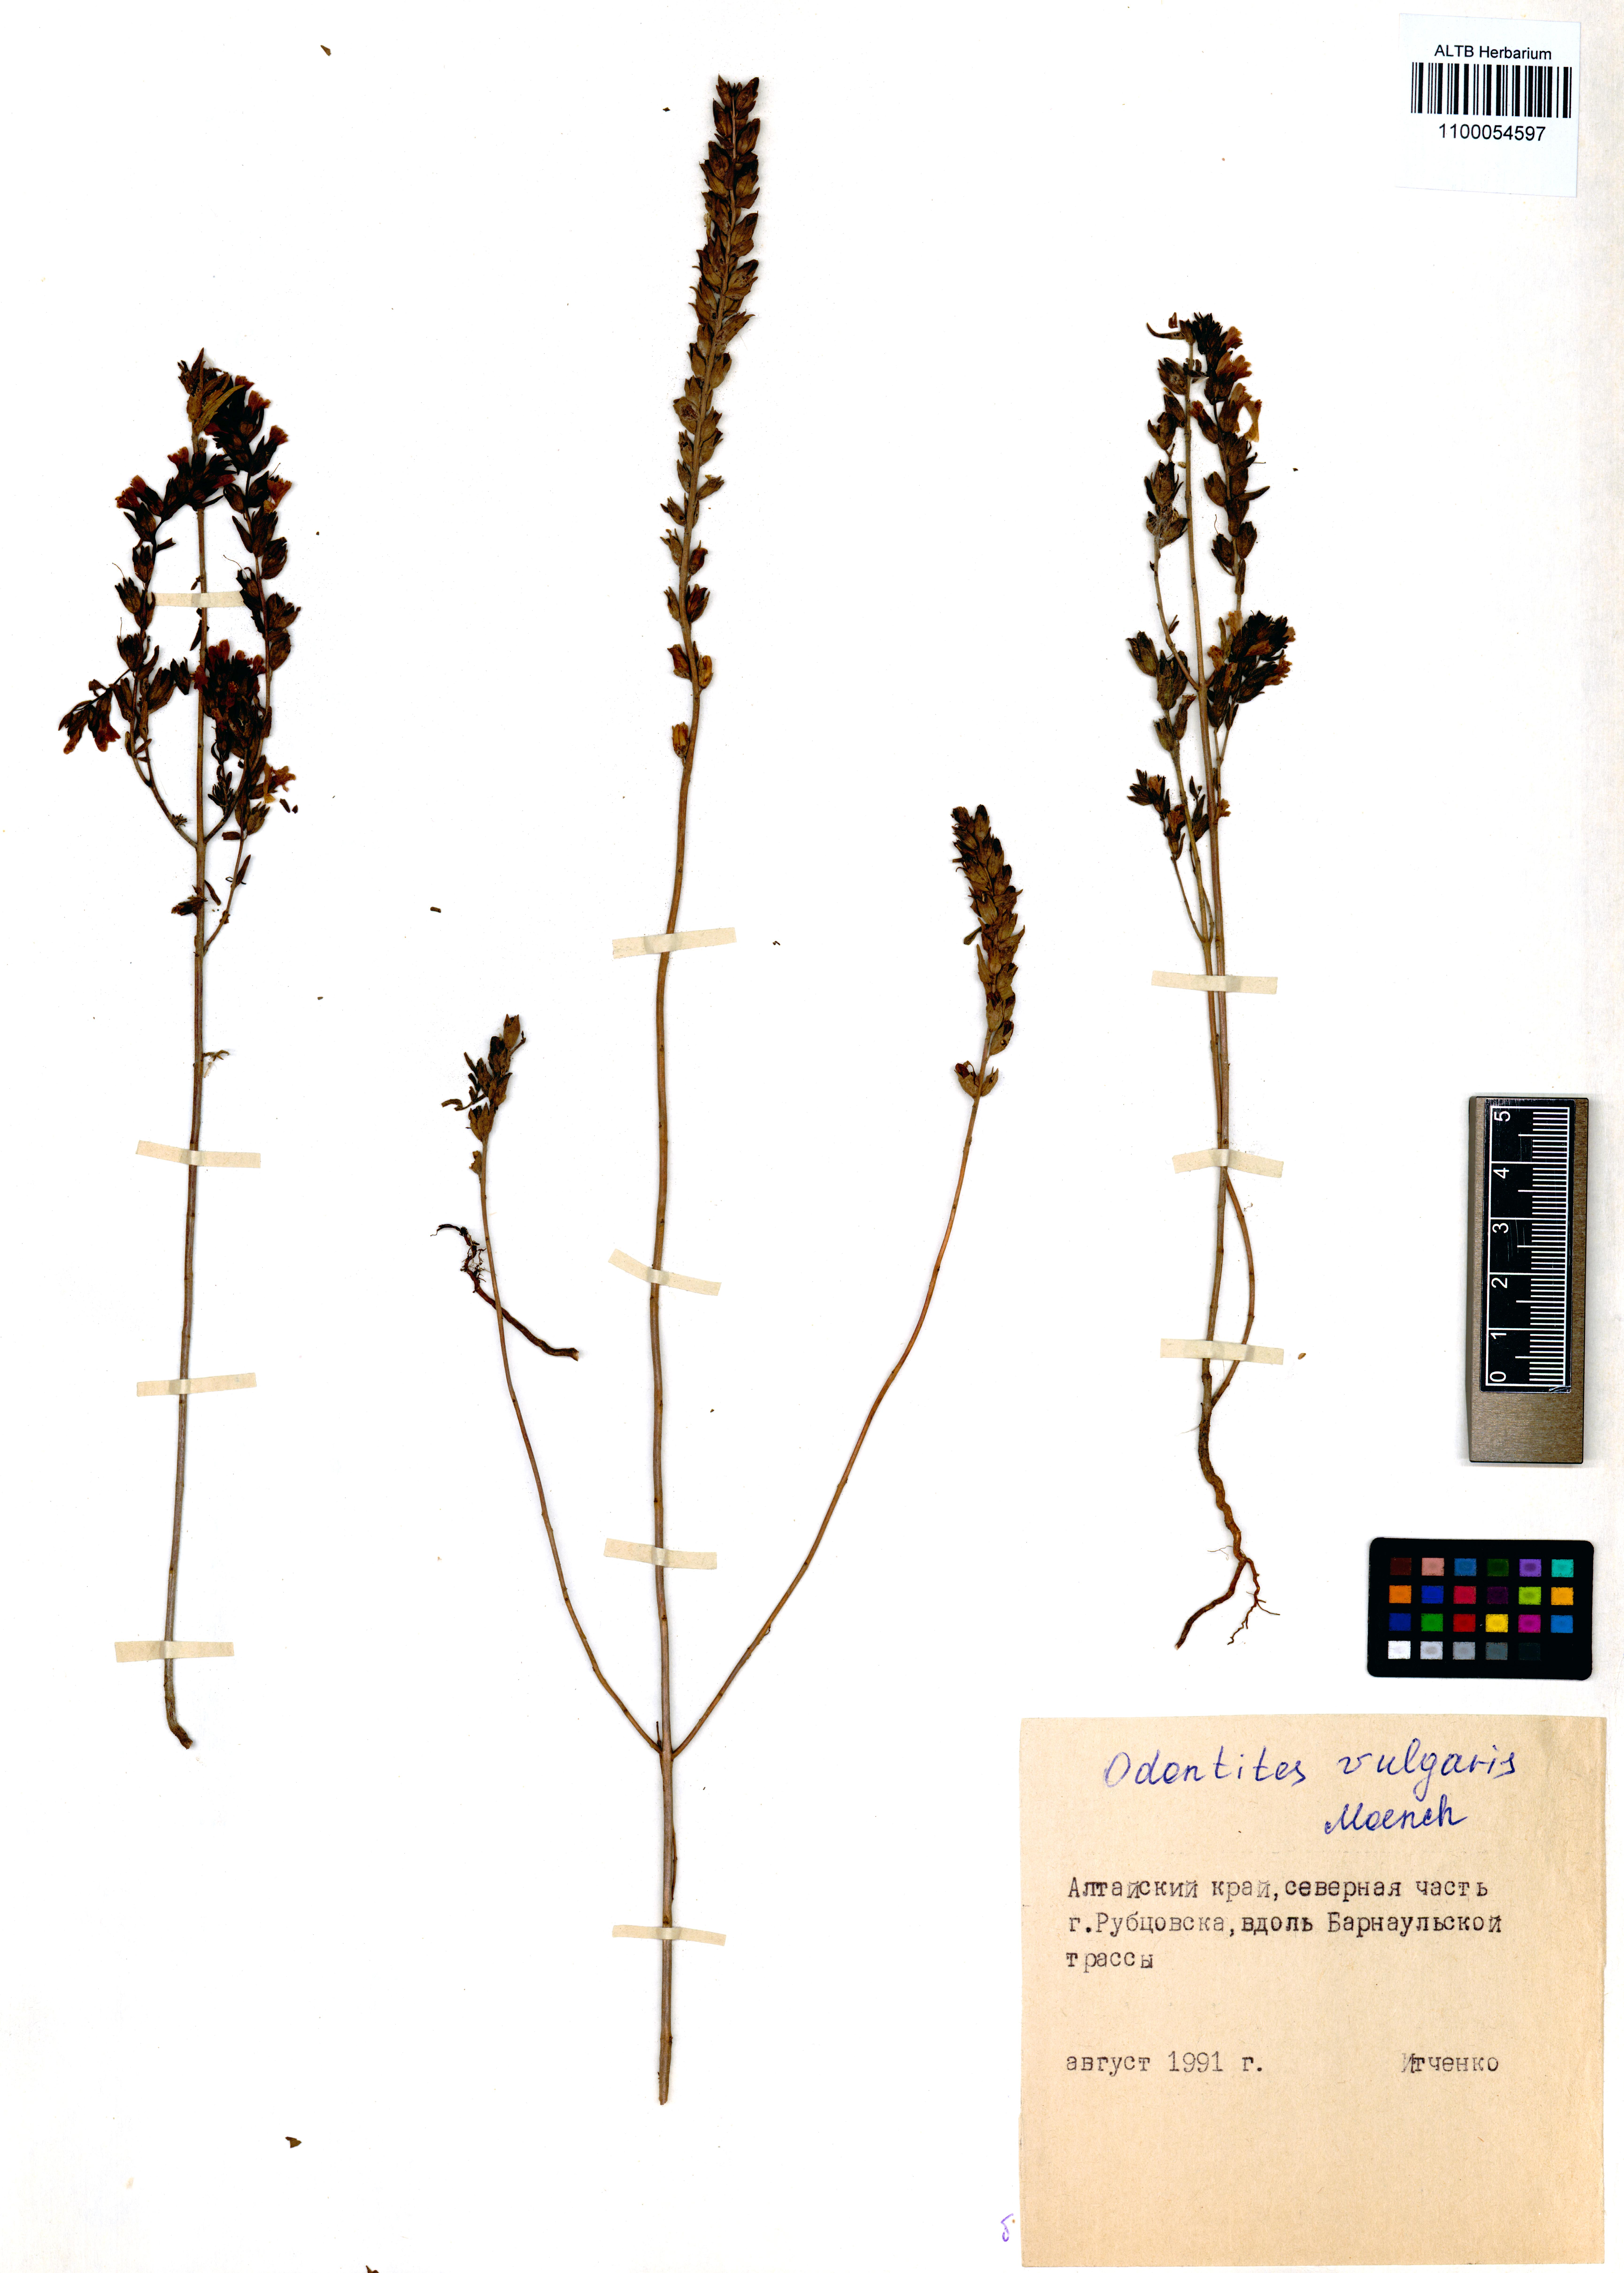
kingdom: Plantae
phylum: Tracheophyta
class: Magnoliopsida
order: Lamiales
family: Orobanchaceae
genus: Odontites
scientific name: Odontites vulgaris
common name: Broomrape
